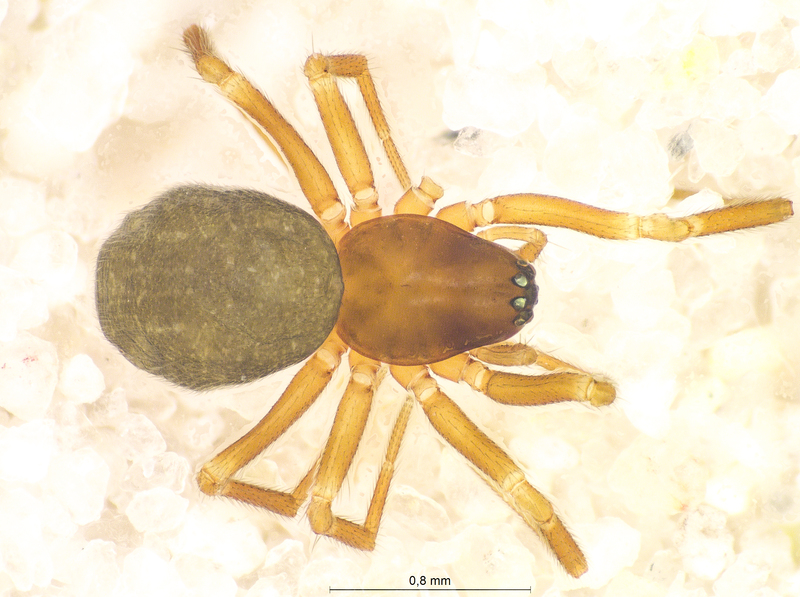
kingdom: Animalia
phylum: Arthropoda
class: Arachnida
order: Araneae
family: Linyphiidae
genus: Diplocephalus
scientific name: Diplocephalus latifrons
